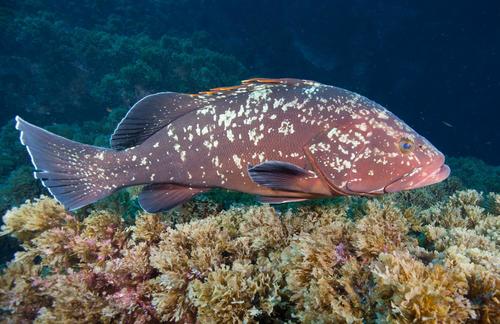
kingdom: Animalia
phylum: Chordata
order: Perciformes
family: Serranidae
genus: Epinephelus
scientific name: Epinephelus marginatus
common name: Dusky grouper
